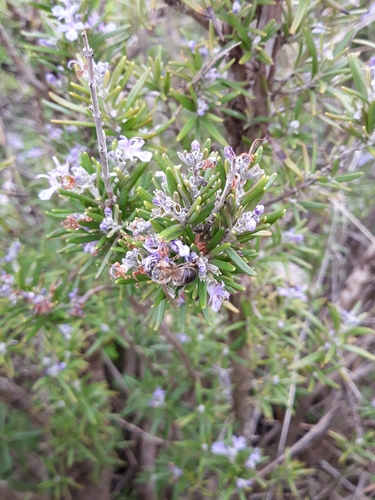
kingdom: Animalia
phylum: Arthropoda
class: Insecta
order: Hymenoptera
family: Apidae
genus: Apis
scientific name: Apis mellifera
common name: Honey bee
